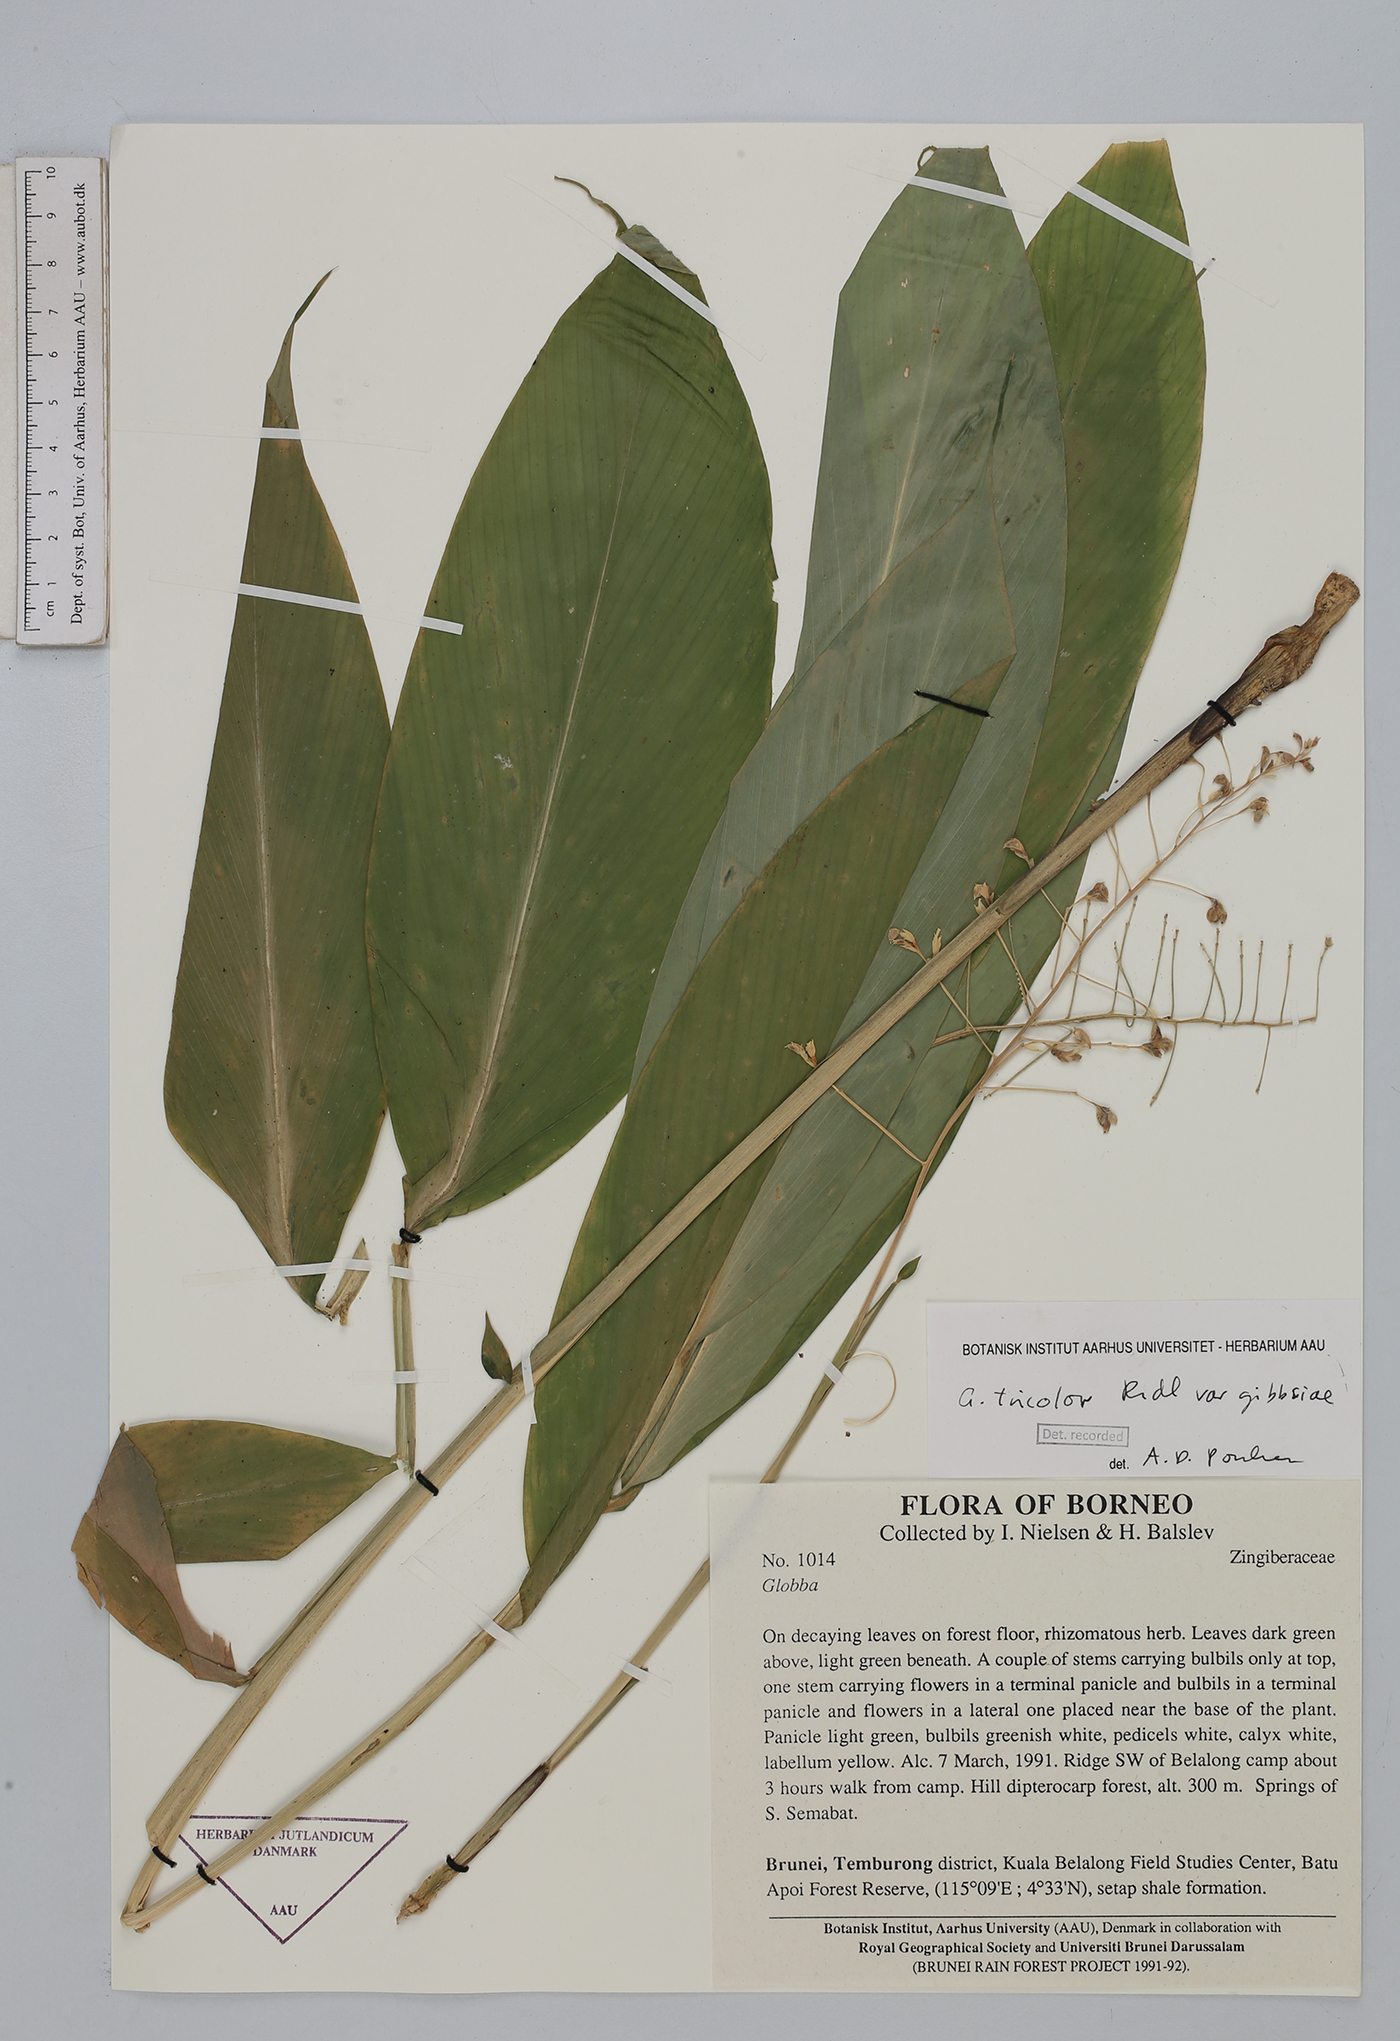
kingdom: Plantae
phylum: Tracheophyta
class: Liliopsida
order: Zingiberales
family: Zingiberaceae
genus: Globba
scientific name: Globba tricolor
